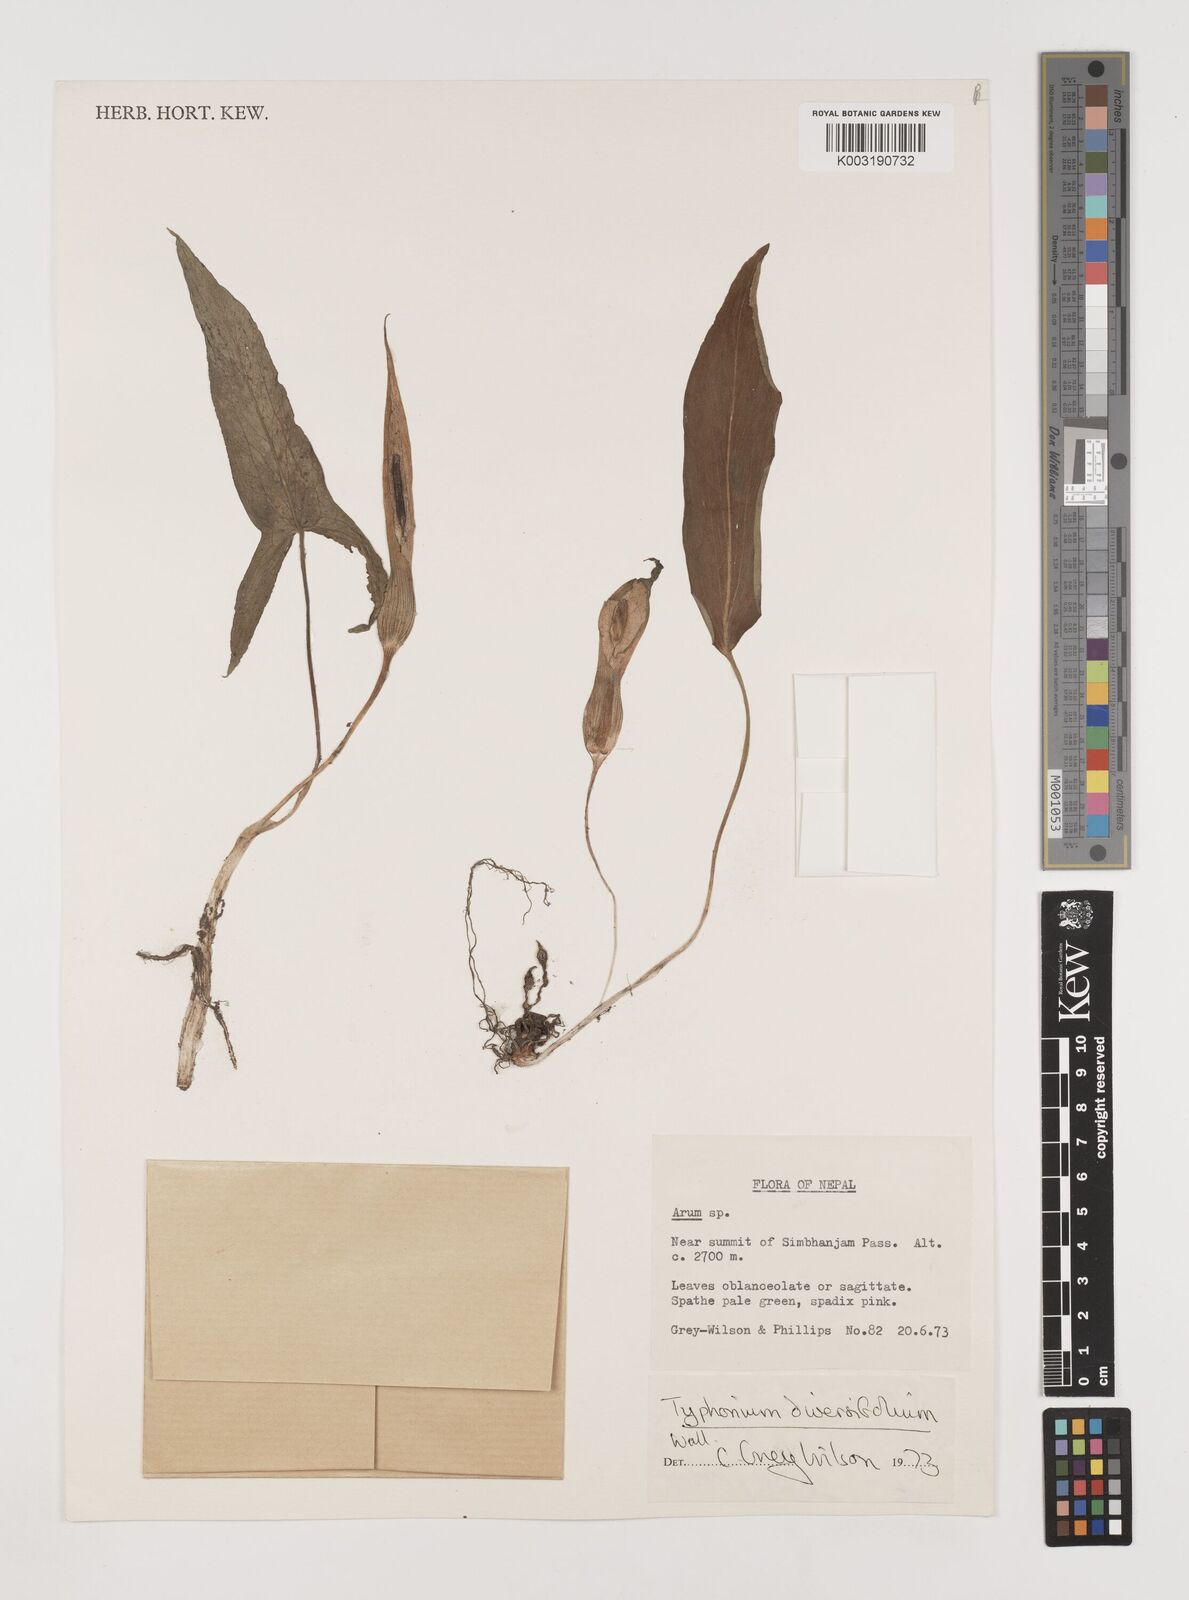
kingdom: Plantae
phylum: Tracheophyta
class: Liliopsida
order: Alismatales
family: Araceae
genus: Sauromatum
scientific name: Sauromatum diversifolium
